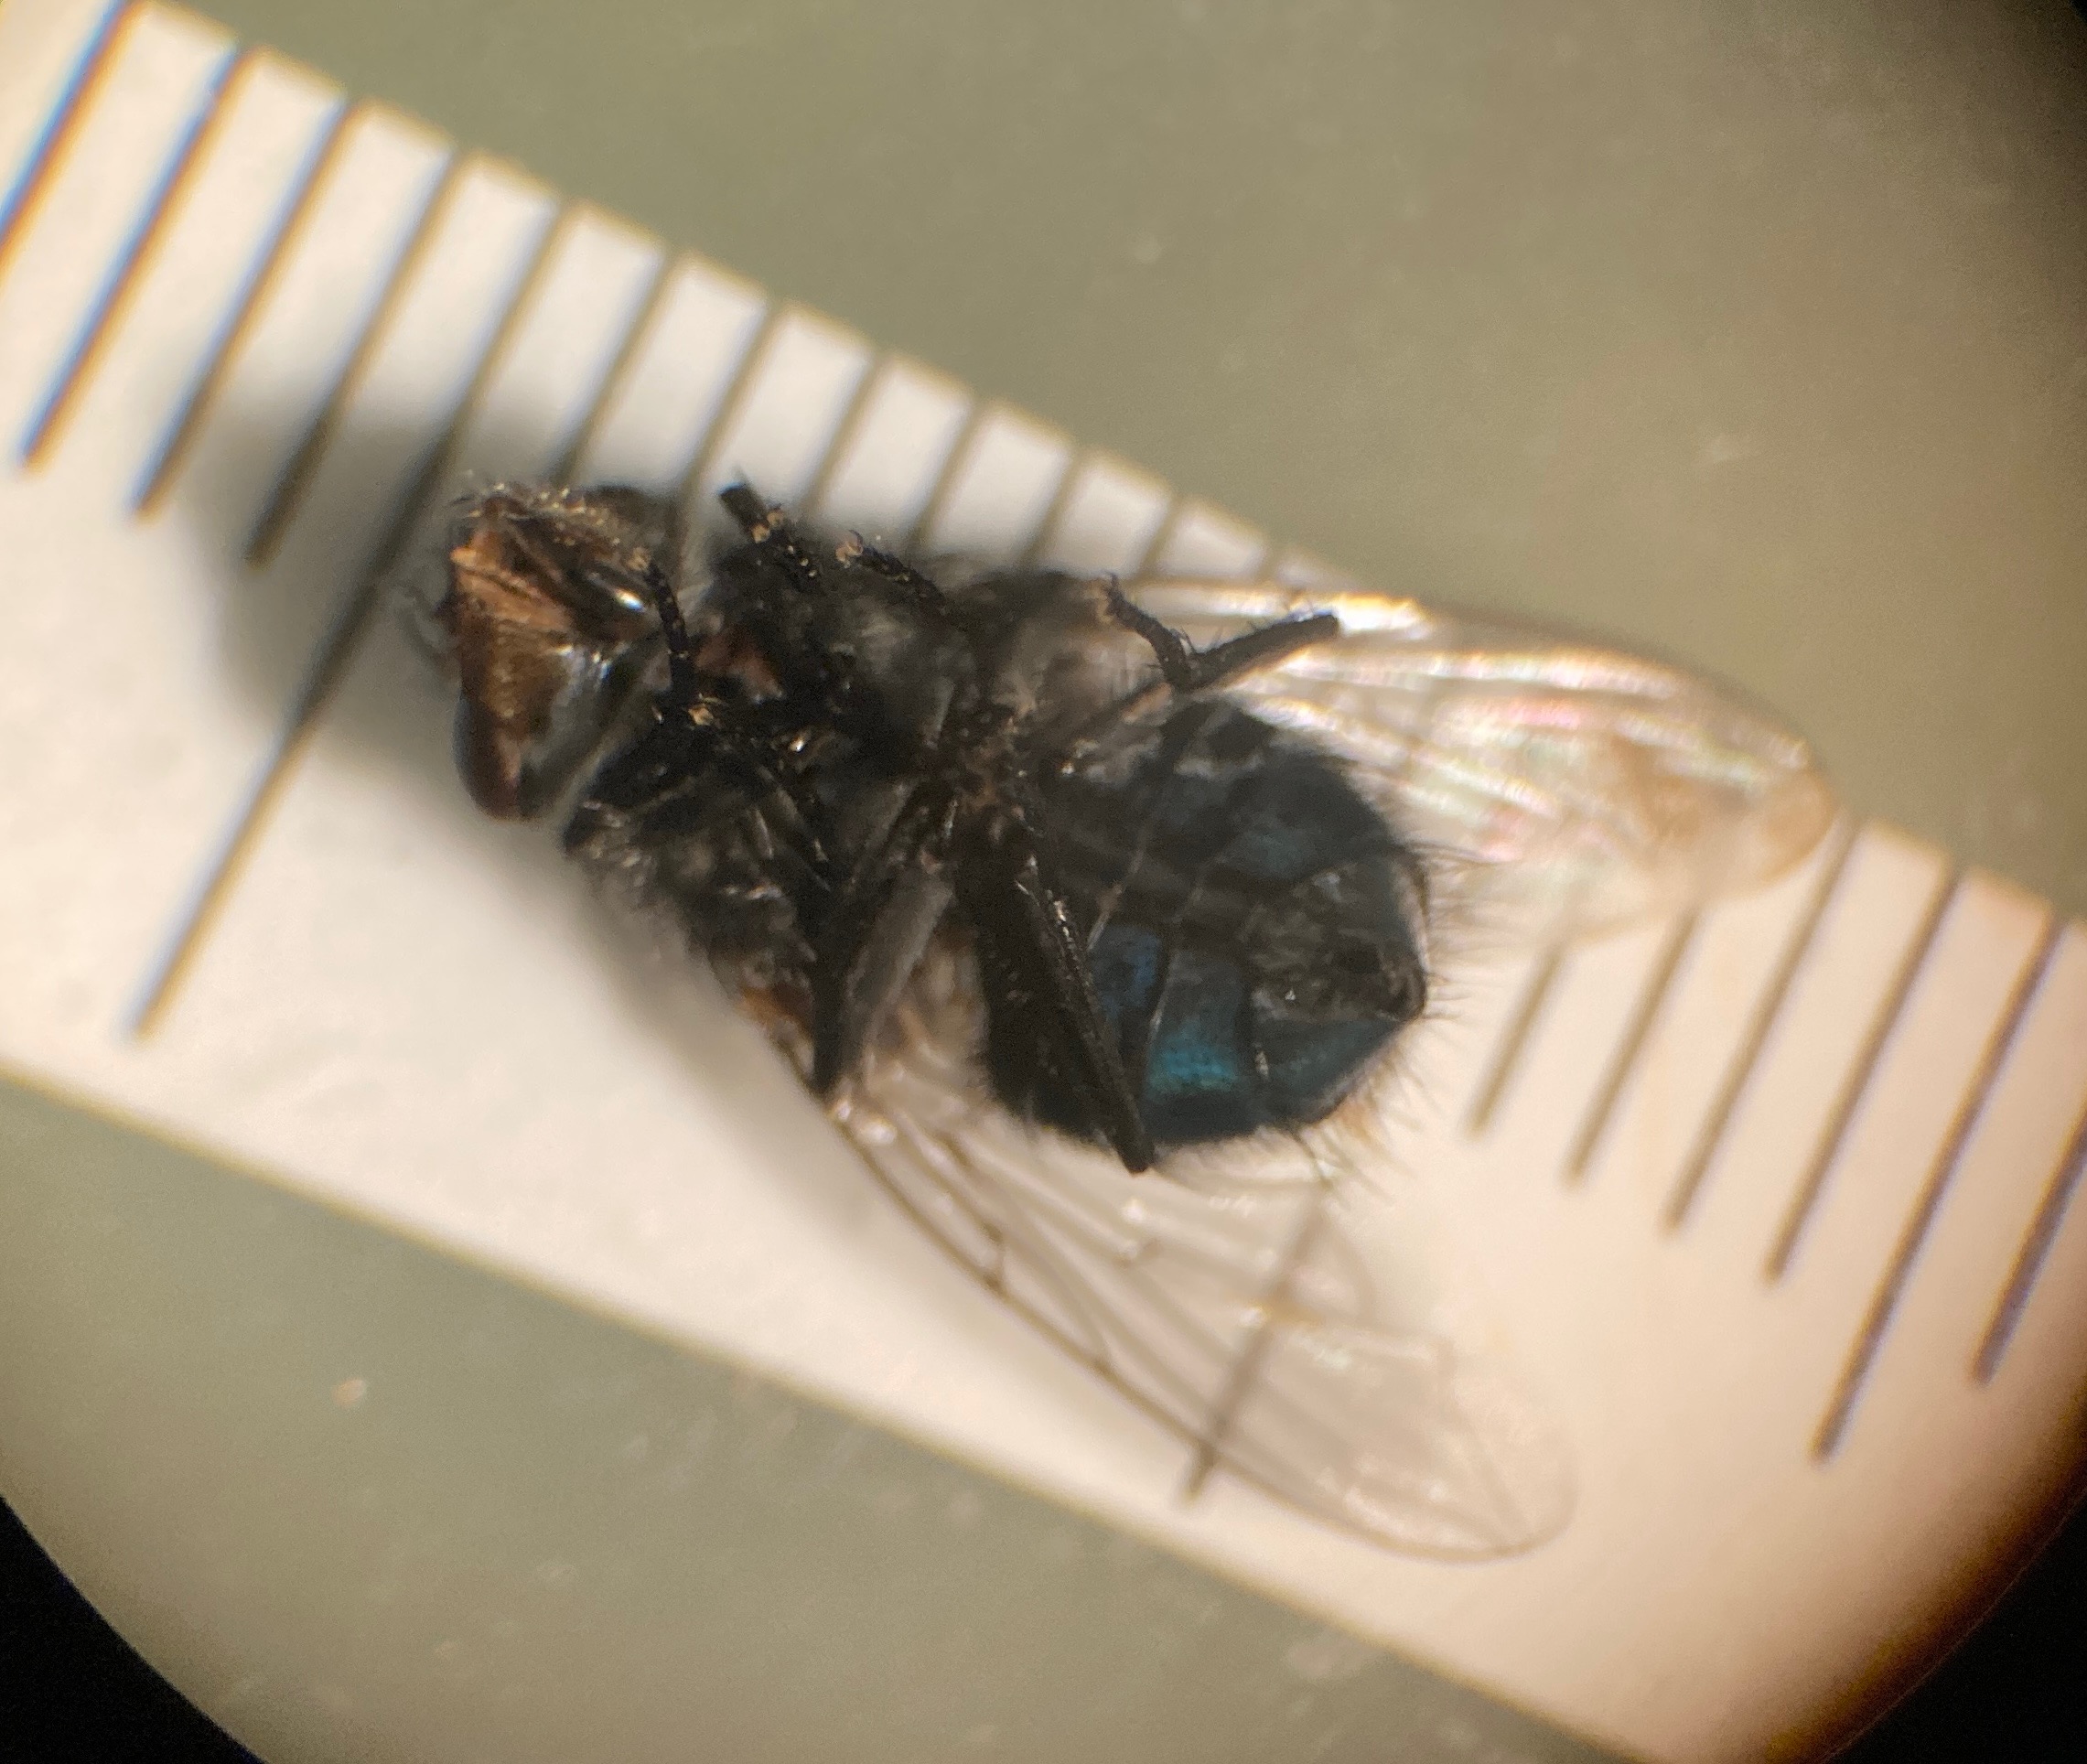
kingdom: Animalia
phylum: Arthropoda
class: Insecta
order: Diptera
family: Calliphoridae
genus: Calliphora
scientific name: Calliphora vicina
